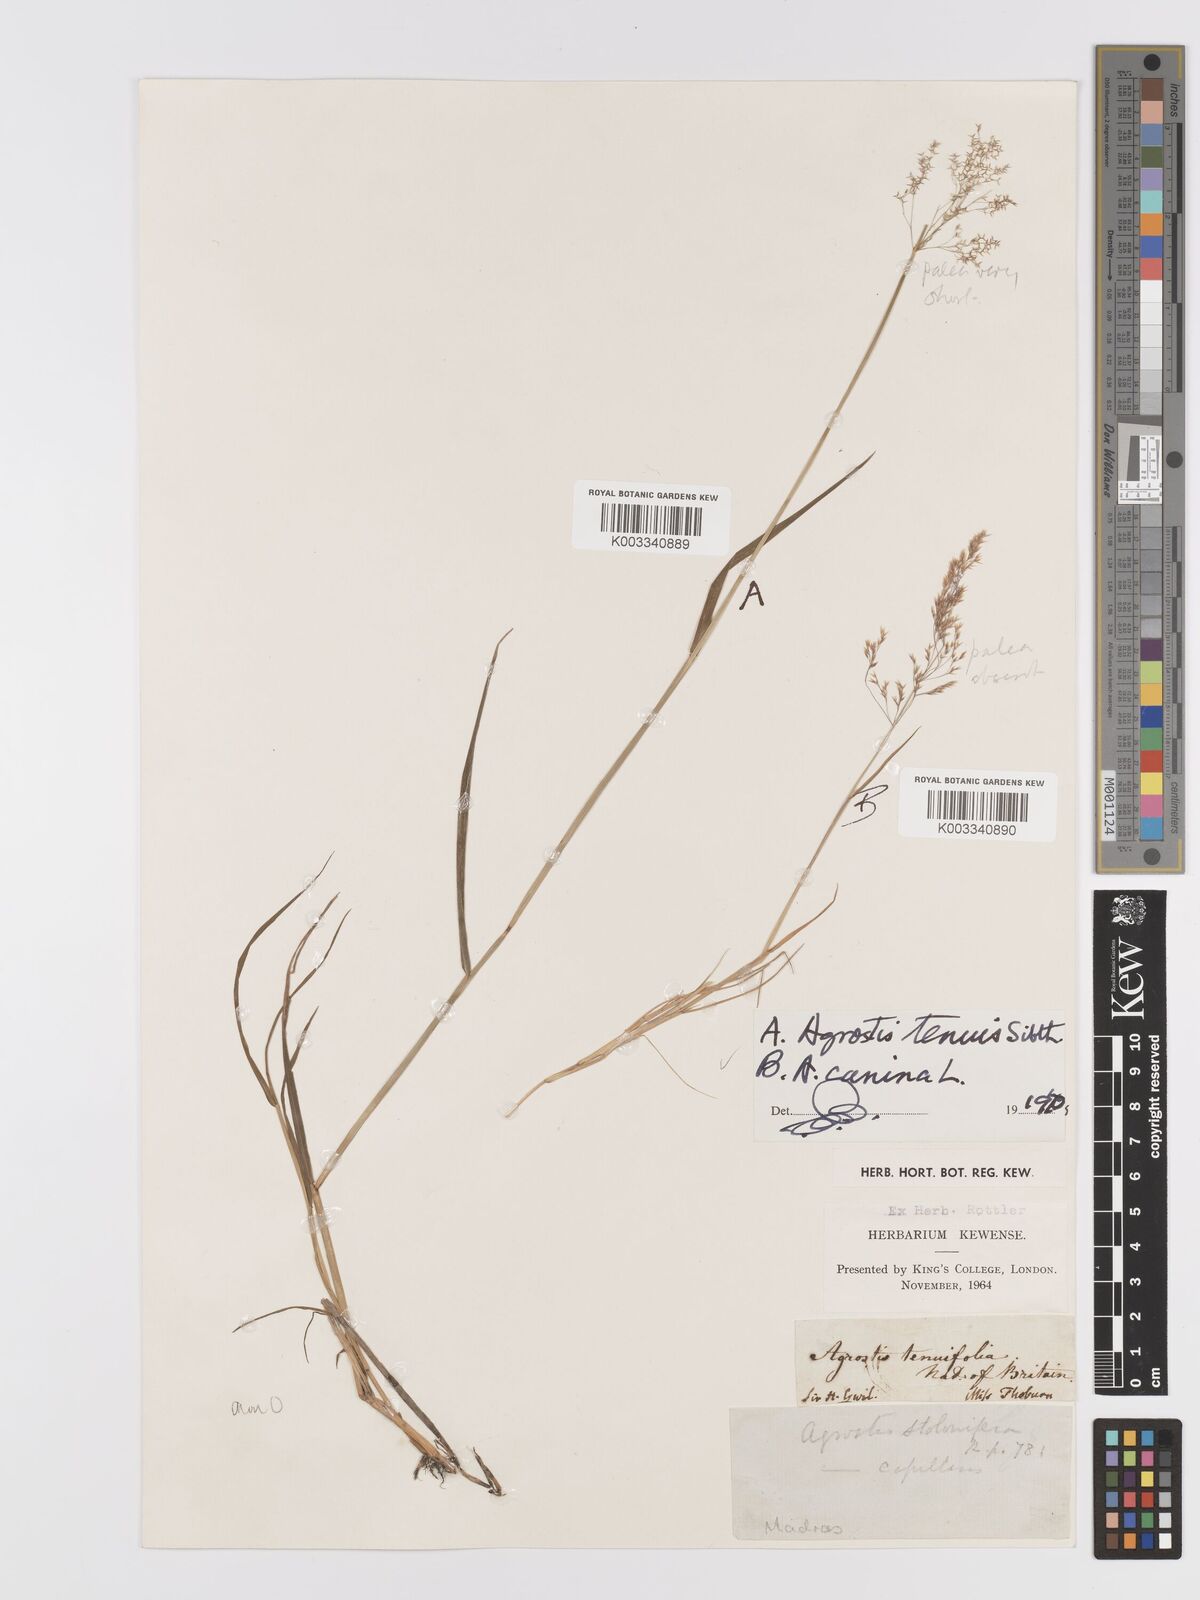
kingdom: Plantae
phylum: Tracheophyta
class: Liliopsida
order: Poales
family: Poaceae
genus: Agrostis
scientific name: Agrostis capillaris
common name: Colonial bentgrass
